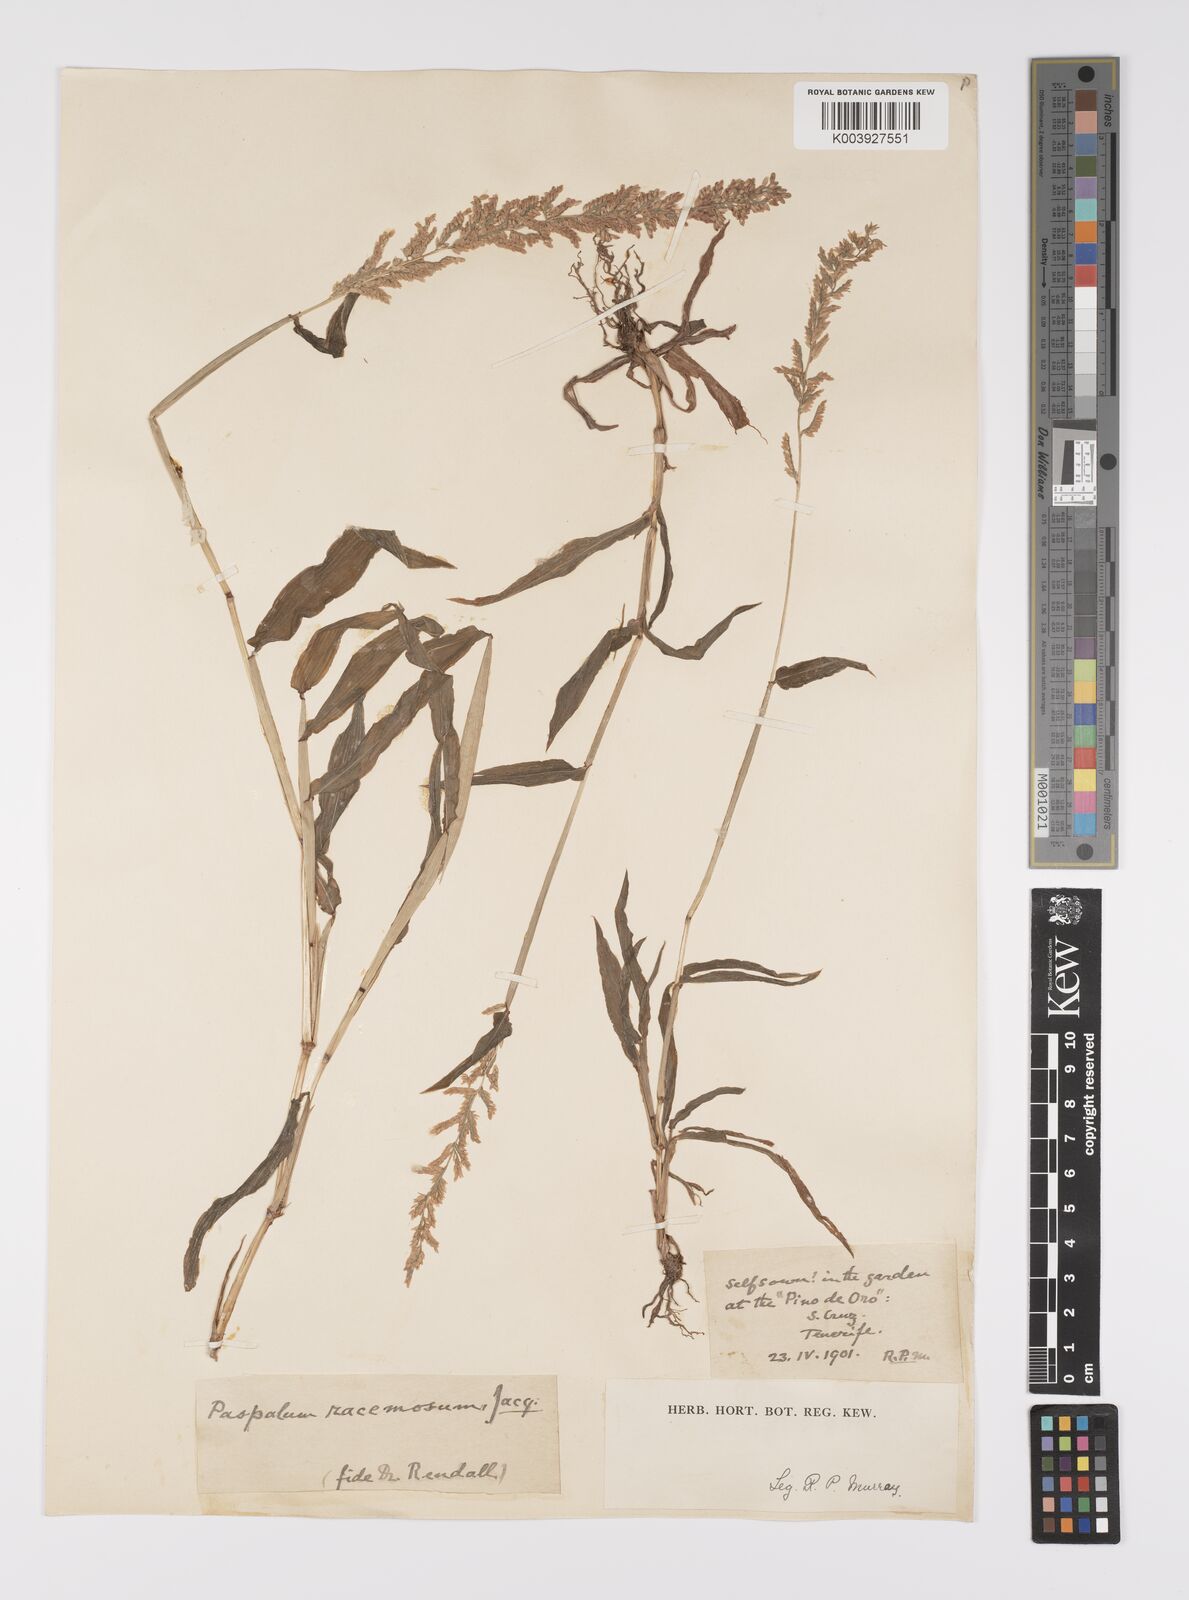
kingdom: Plantae
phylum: Tracheophyta
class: Liliopsida
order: Poales
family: Poaceae
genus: Paspalum
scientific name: Paspalum
